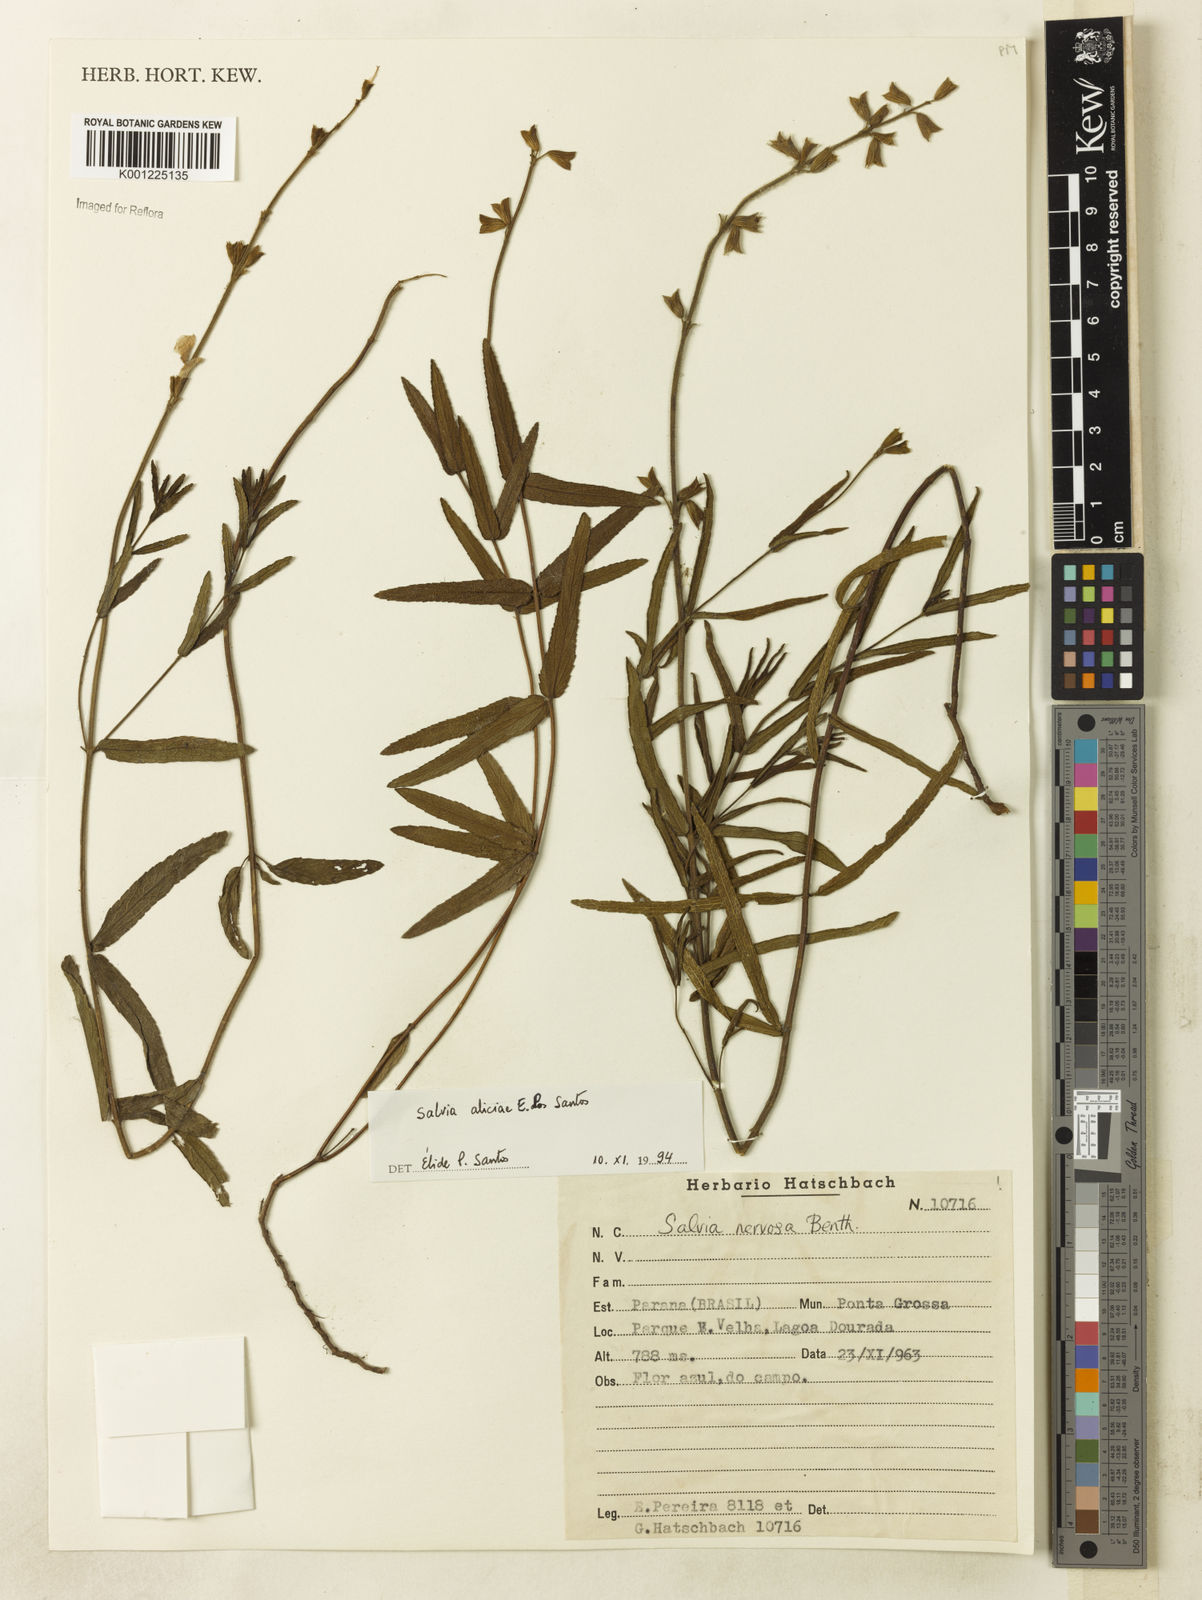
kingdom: Plantae
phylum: Tracheophyta
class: Magnoliopsida
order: Lamiales
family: Lamiaceae
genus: Salvia
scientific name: Salvia aliciae
